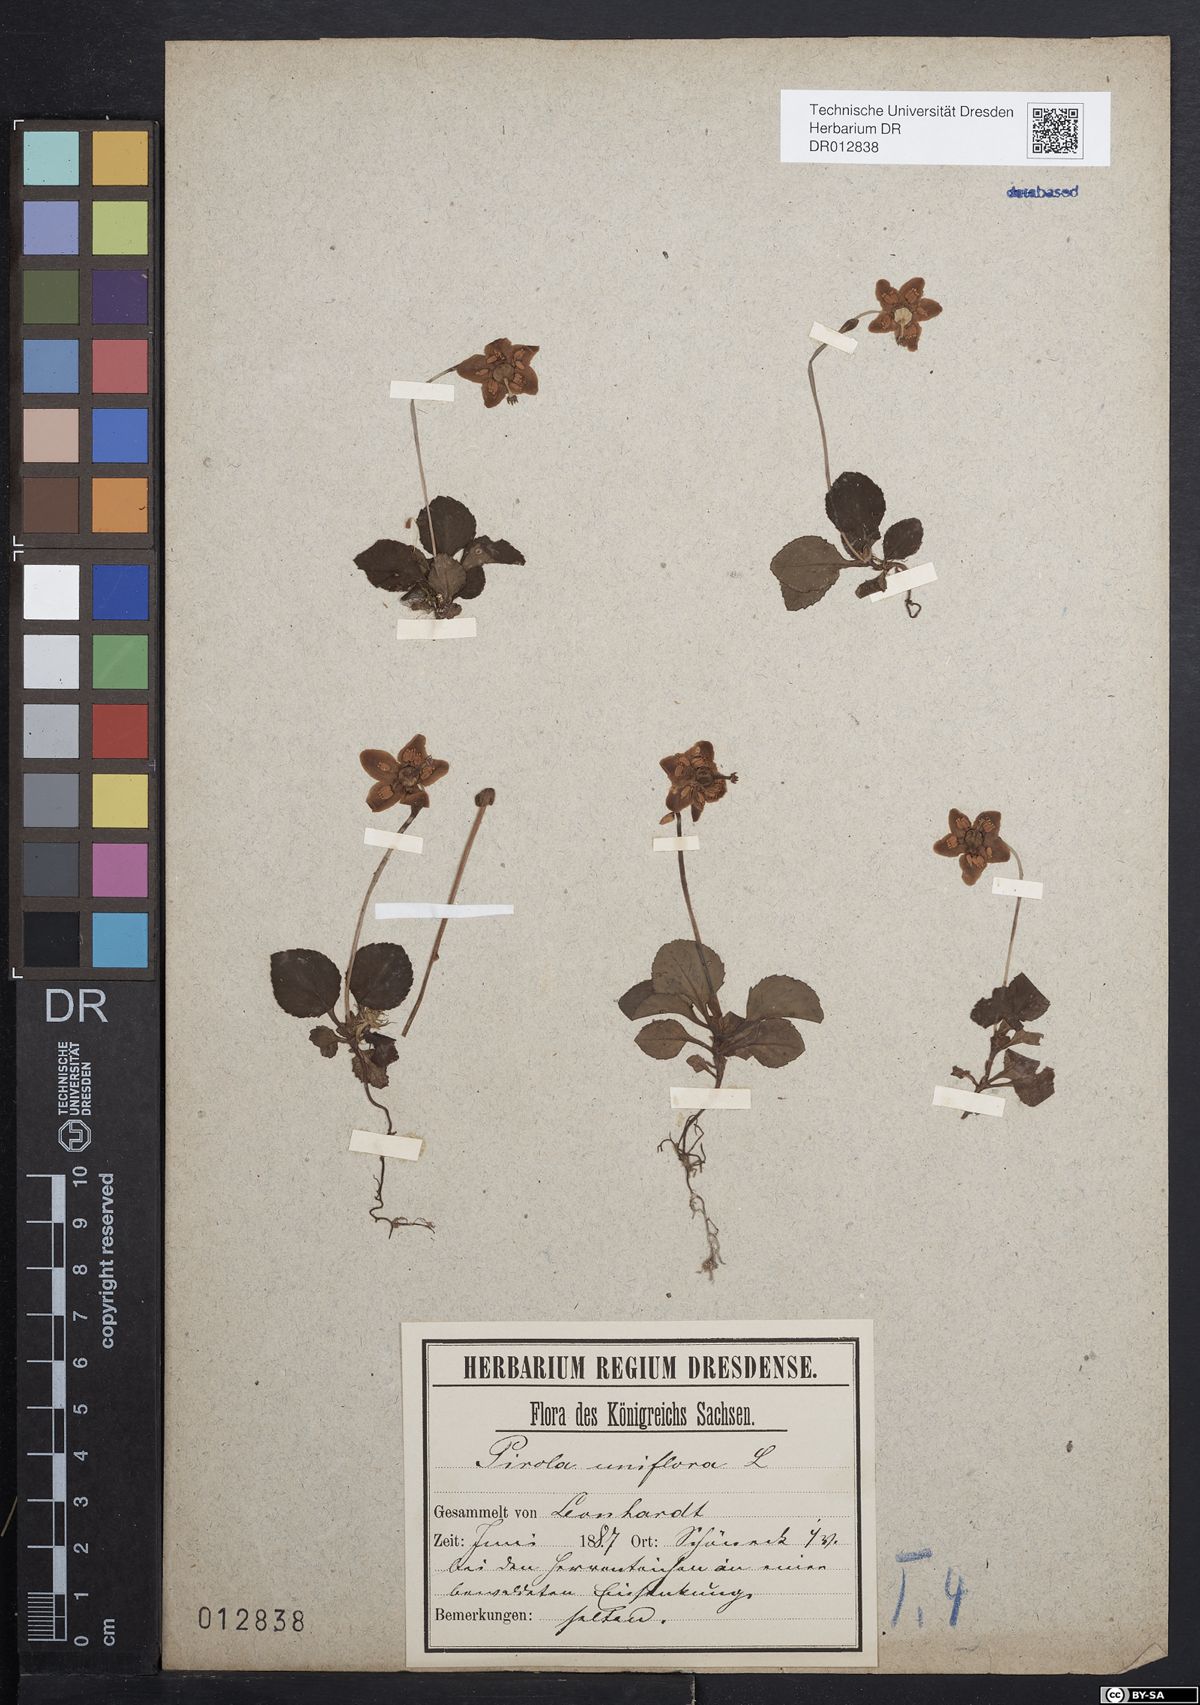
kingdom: Plantae
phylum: Tracheophyta
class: Magnoliopsida
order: Ericales
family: Ericaceae
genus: Moneses
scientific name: Moneses uniflora
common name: One-flowered wintergreen
